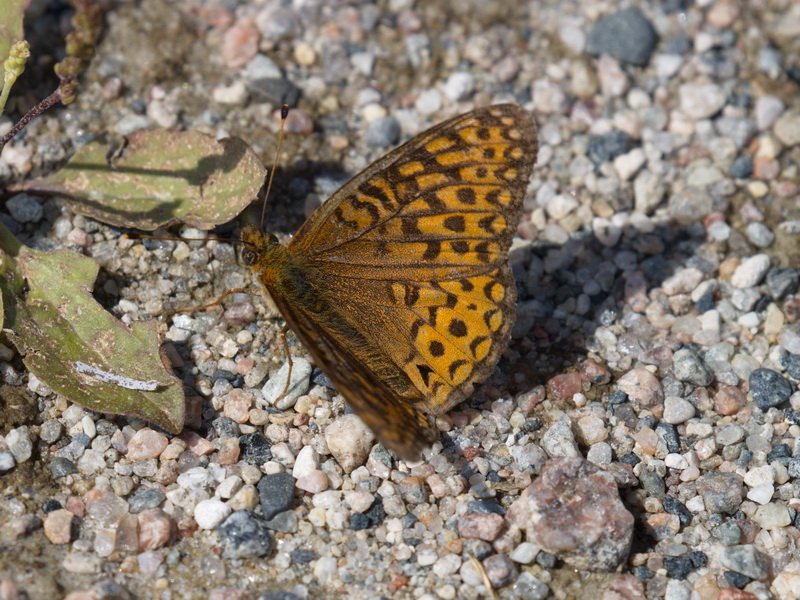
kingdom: Animalia
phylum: Arthropoda
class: Insecta
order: Lepidoptera
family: Nymphalidae
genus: Speyeria
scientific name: Speyeria atlantis
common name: Atlantis Fritillary
